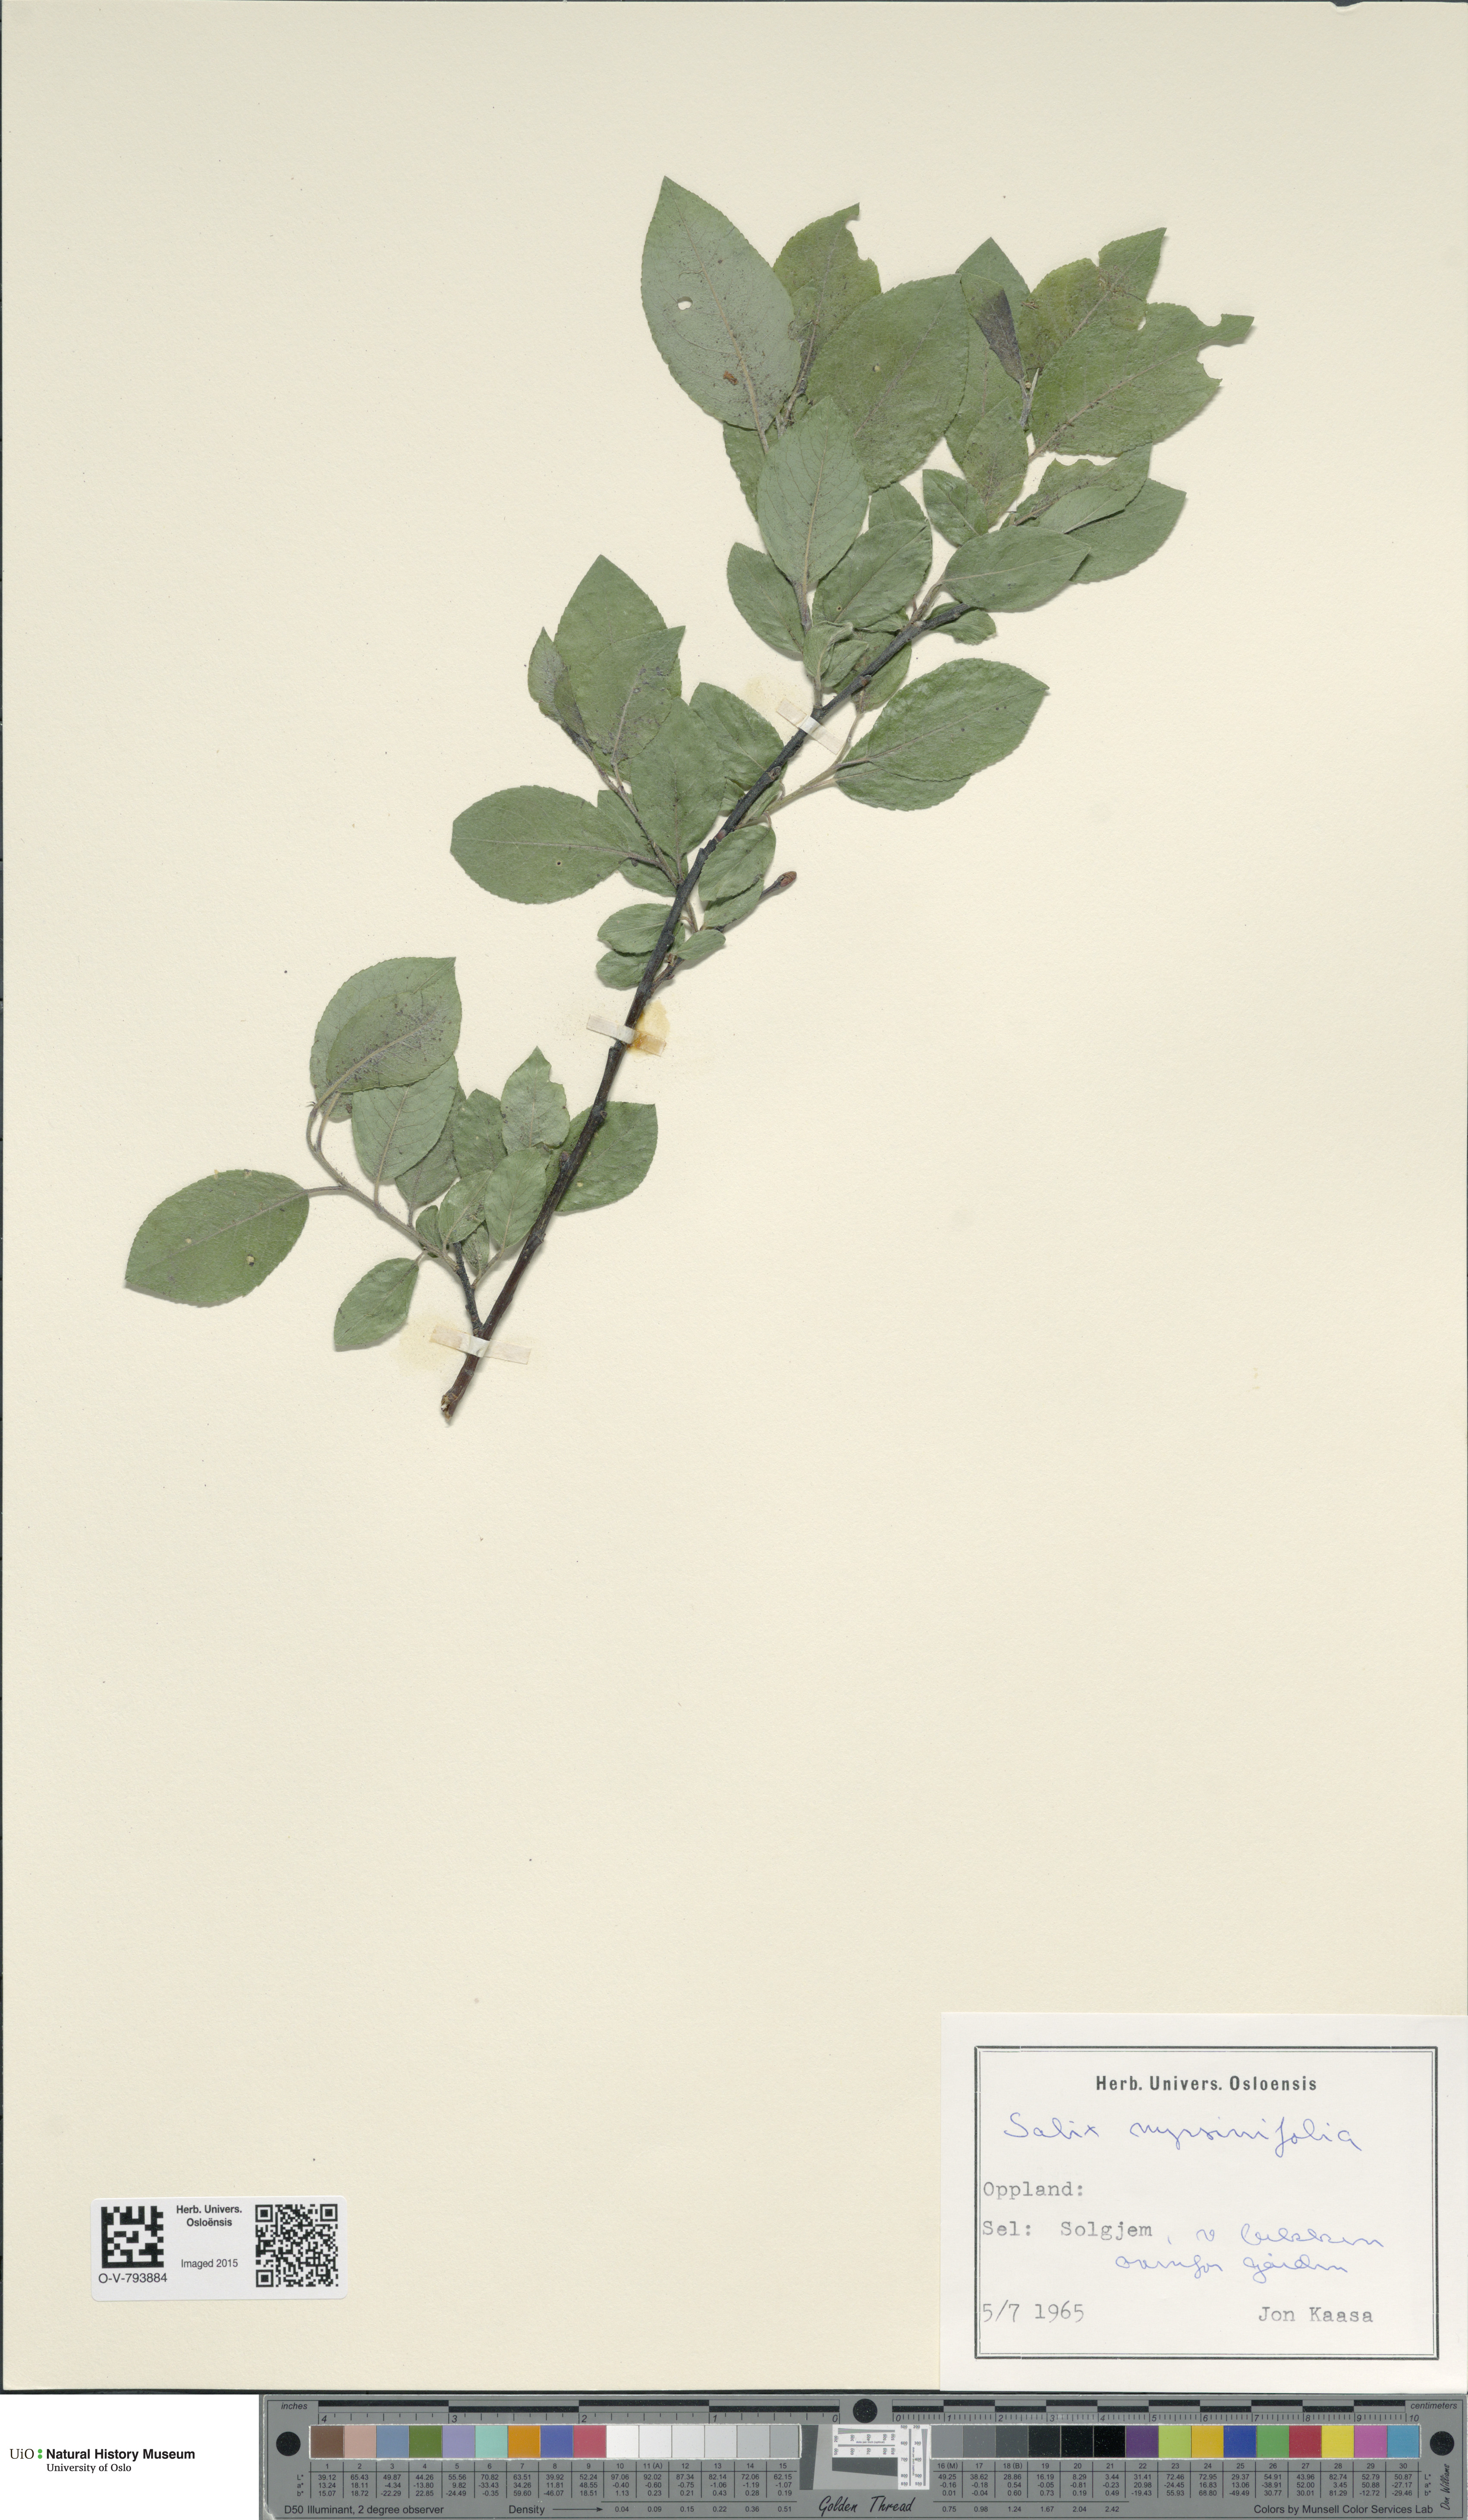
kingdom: Plantae
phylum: Tracheophyta
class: Magnoliopsida
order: Malpighiales
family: Salicaceae
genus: Salix
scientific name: Salix myrsinifolia
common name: Dark-leaved willow
